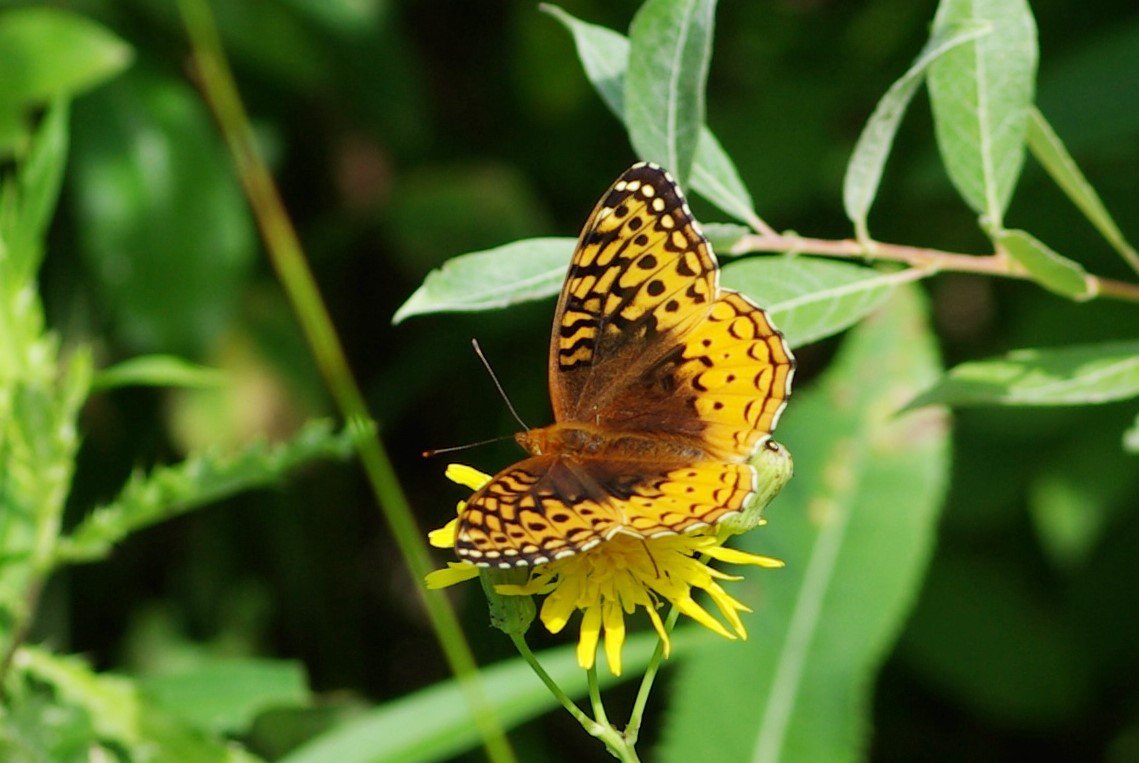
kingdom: Animalia
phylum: Arthropoda
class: Insecta
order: Lepidoptera
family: Nymphalidae
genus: Speyeria
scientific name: Speyeria cybele
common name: Great Spangled Fritillary
